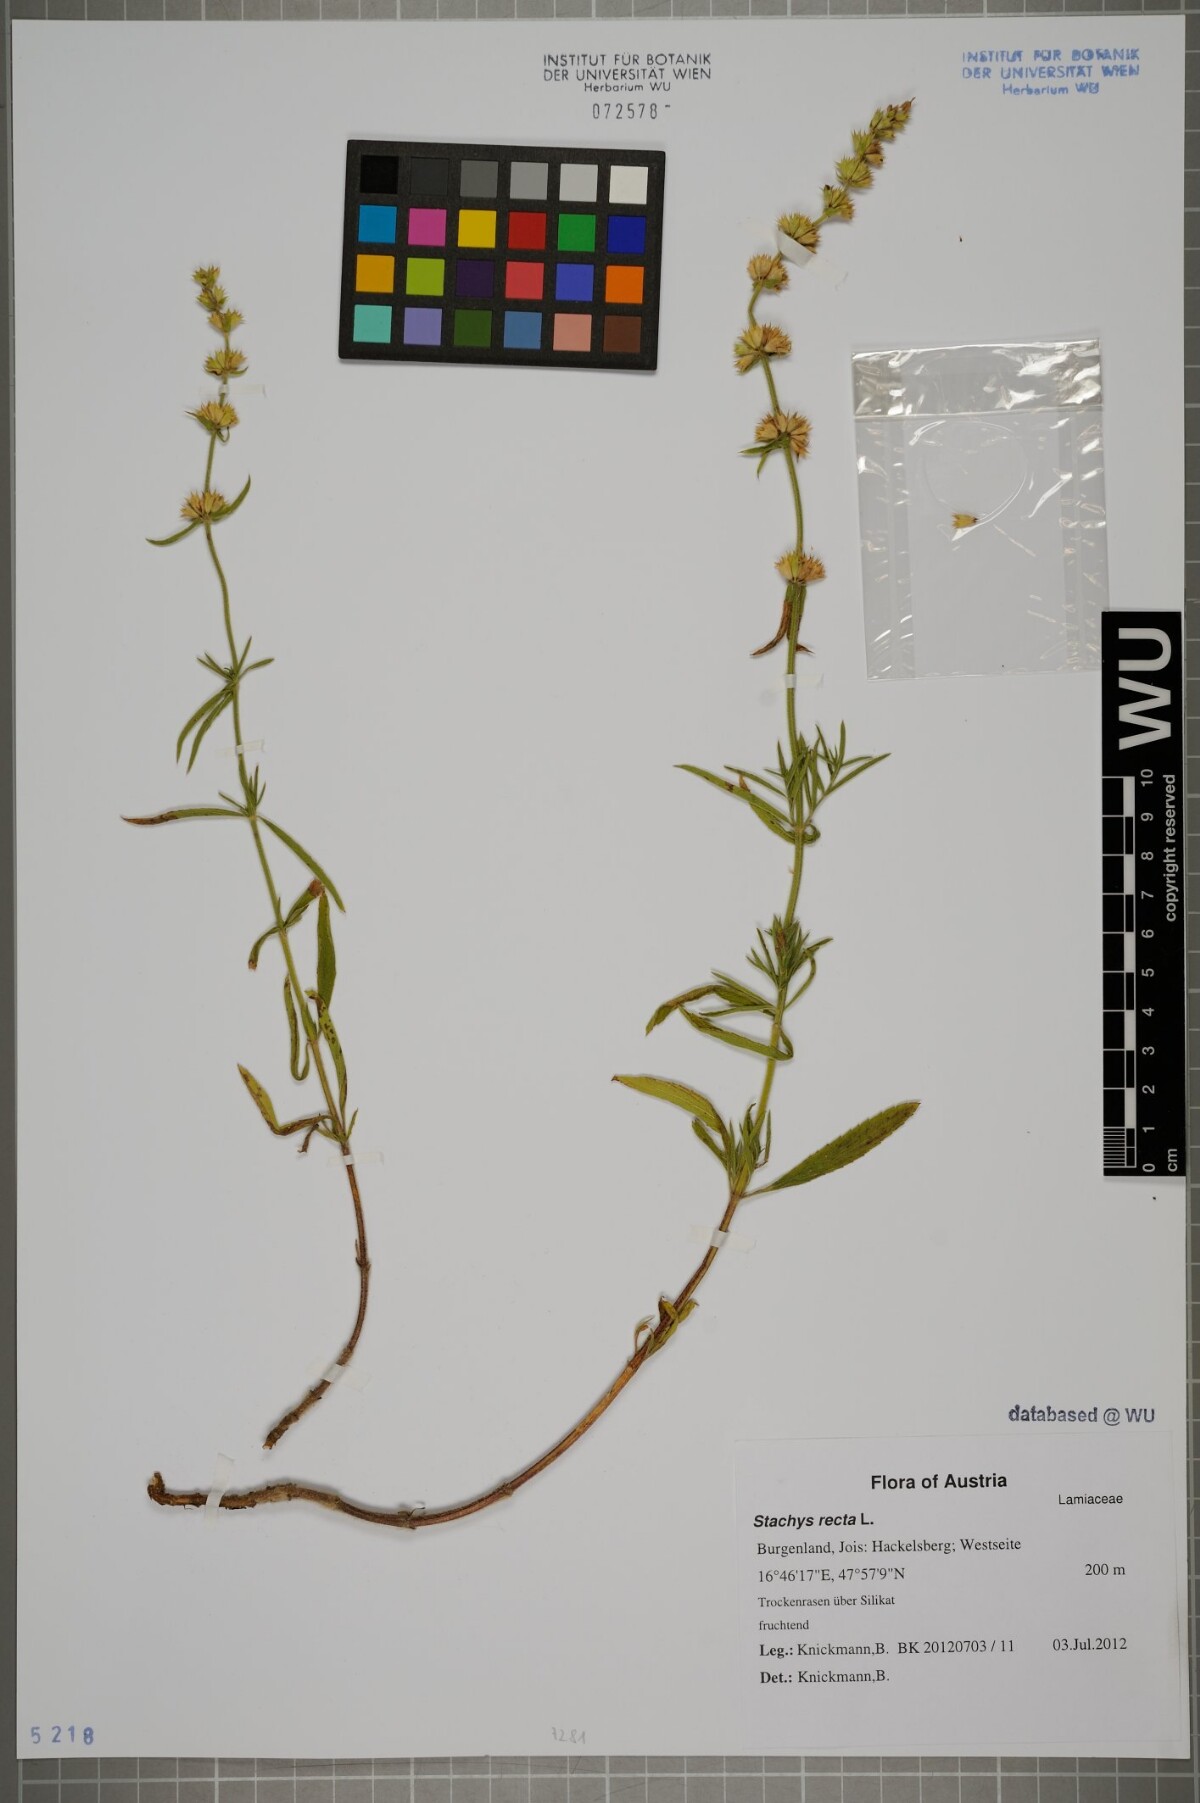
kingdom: Plantae
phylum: Tracheophyta
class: Magnoliopsida
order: Lamiales
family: Lamiaceae
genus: Stachys
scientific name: Stachys recta
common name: Perennial yellow-woundwort
